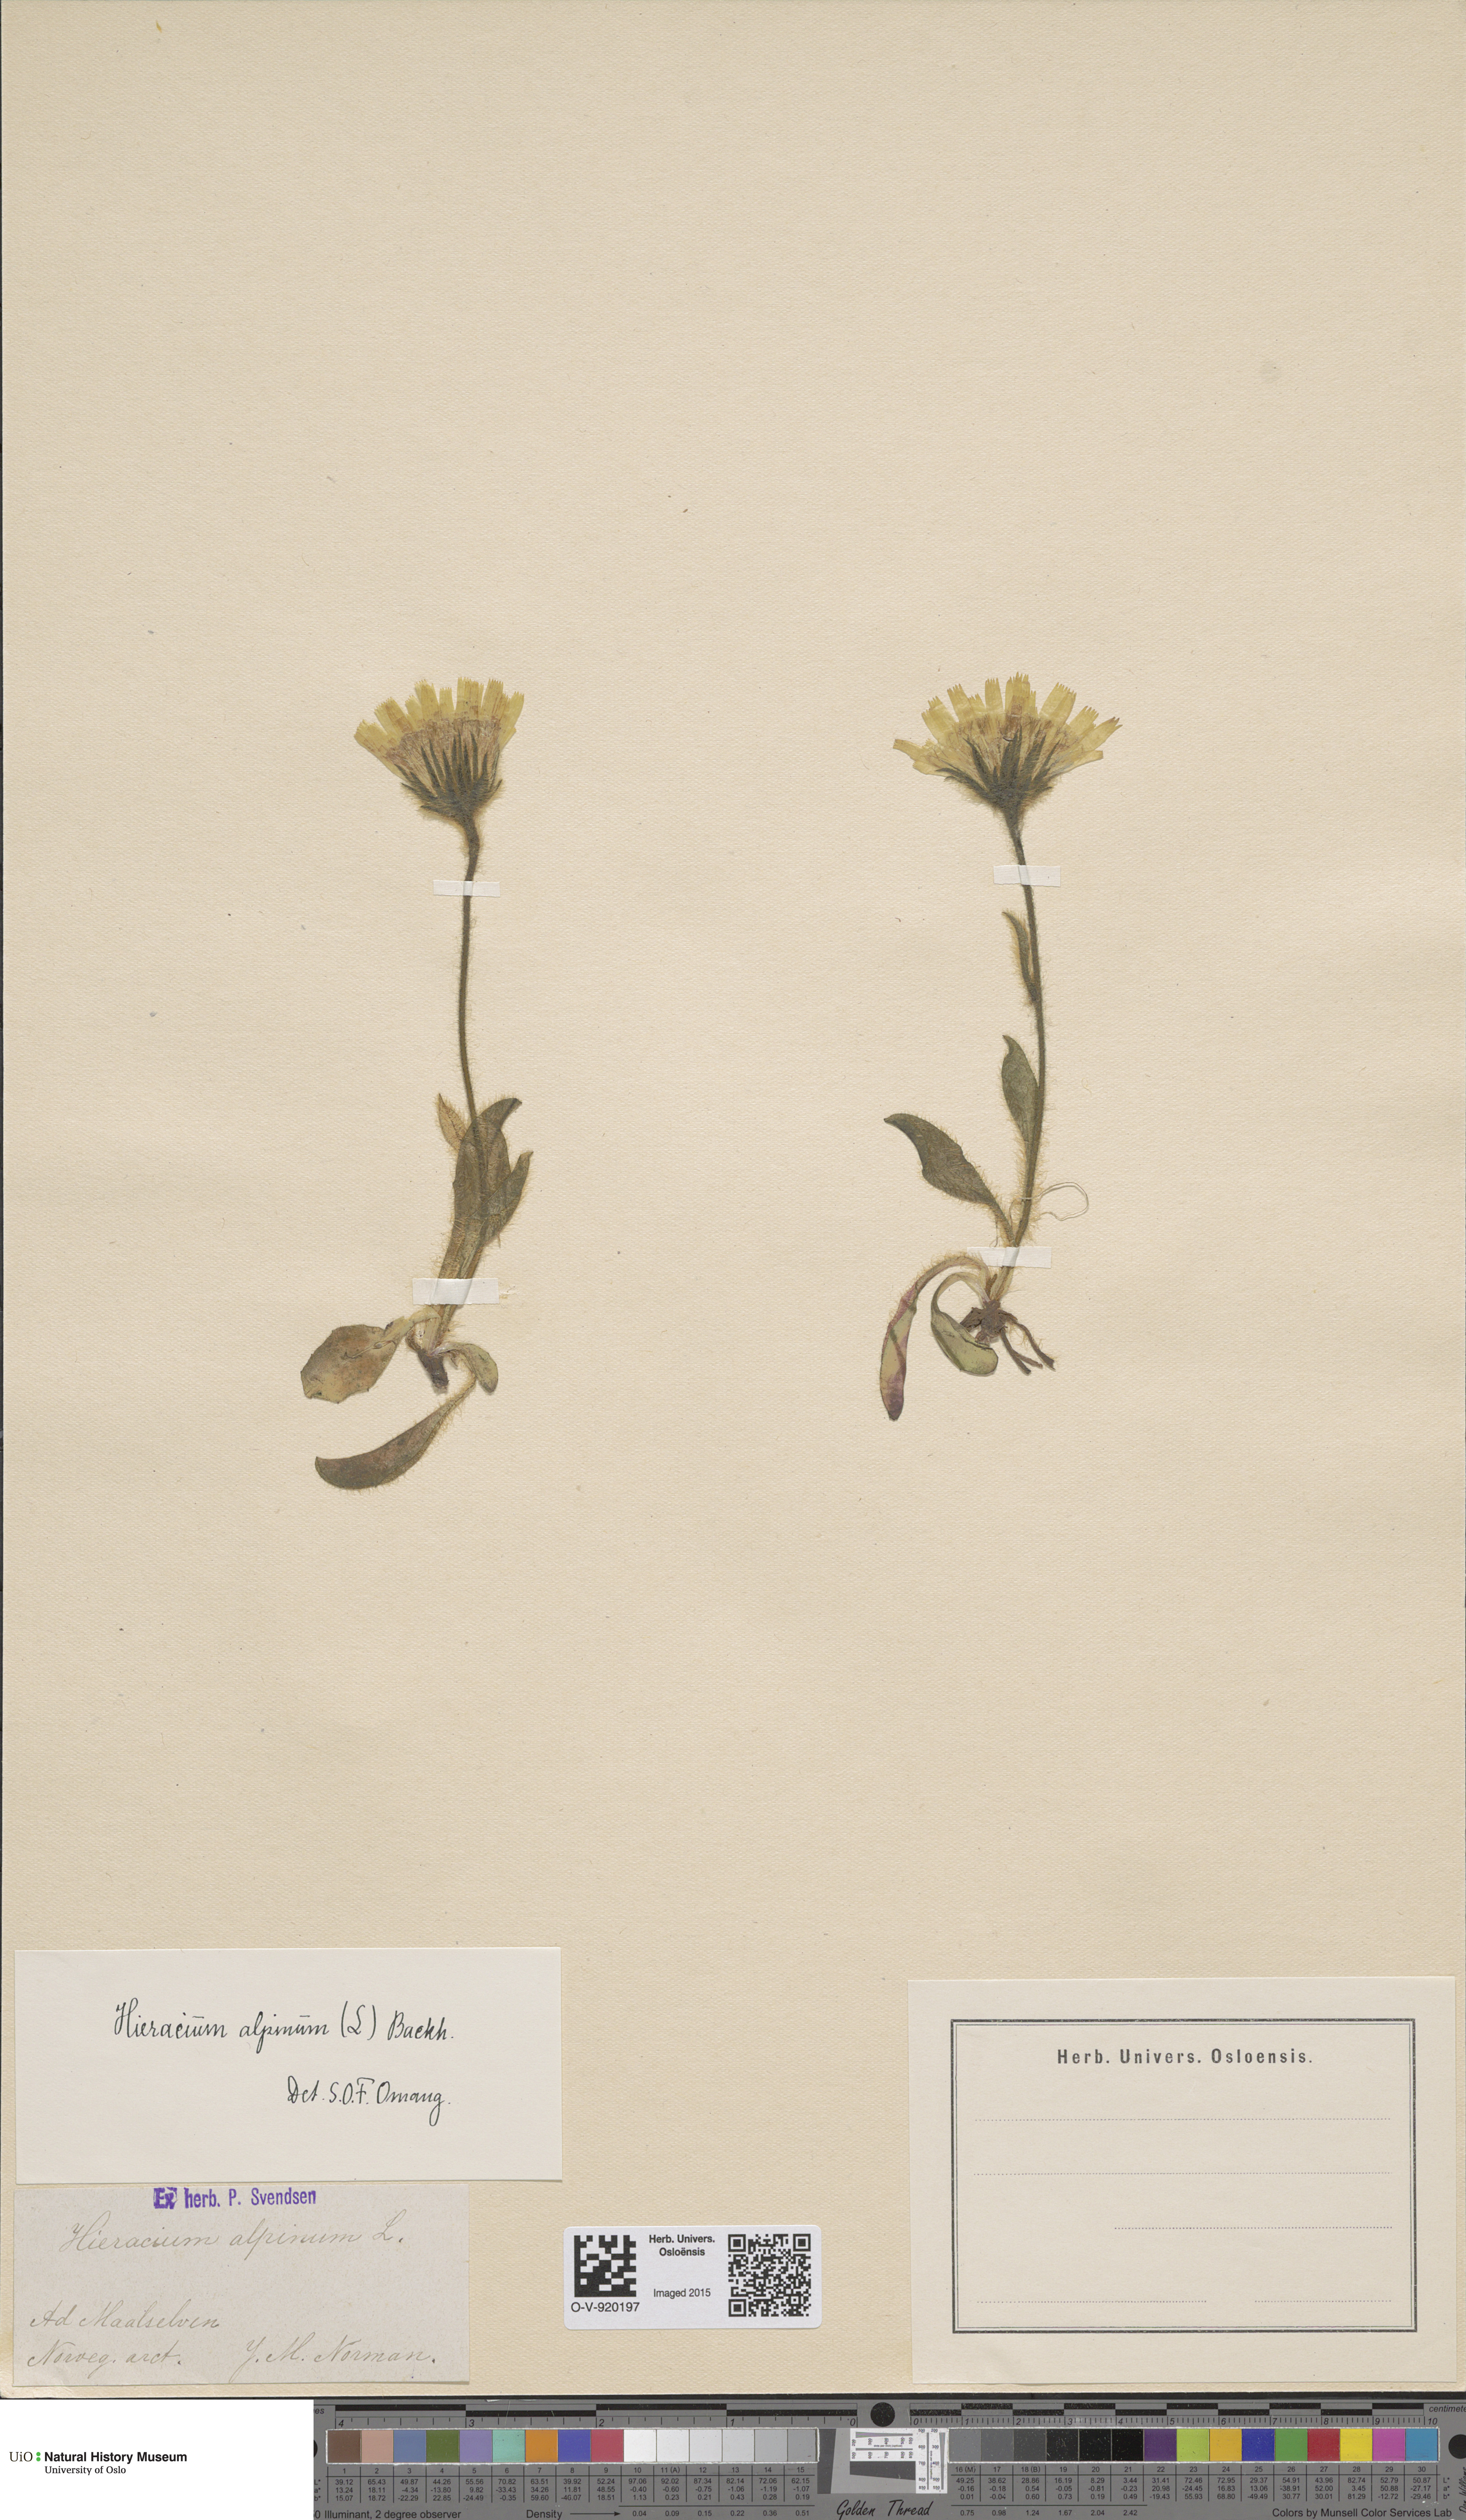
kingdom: Plantae
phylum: Tracheophyta
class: Magnoliopsida
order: Asterales
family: Asteraceae
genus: Hieracium
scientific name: Hieracium alpinum
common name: Alpine hawkweed
